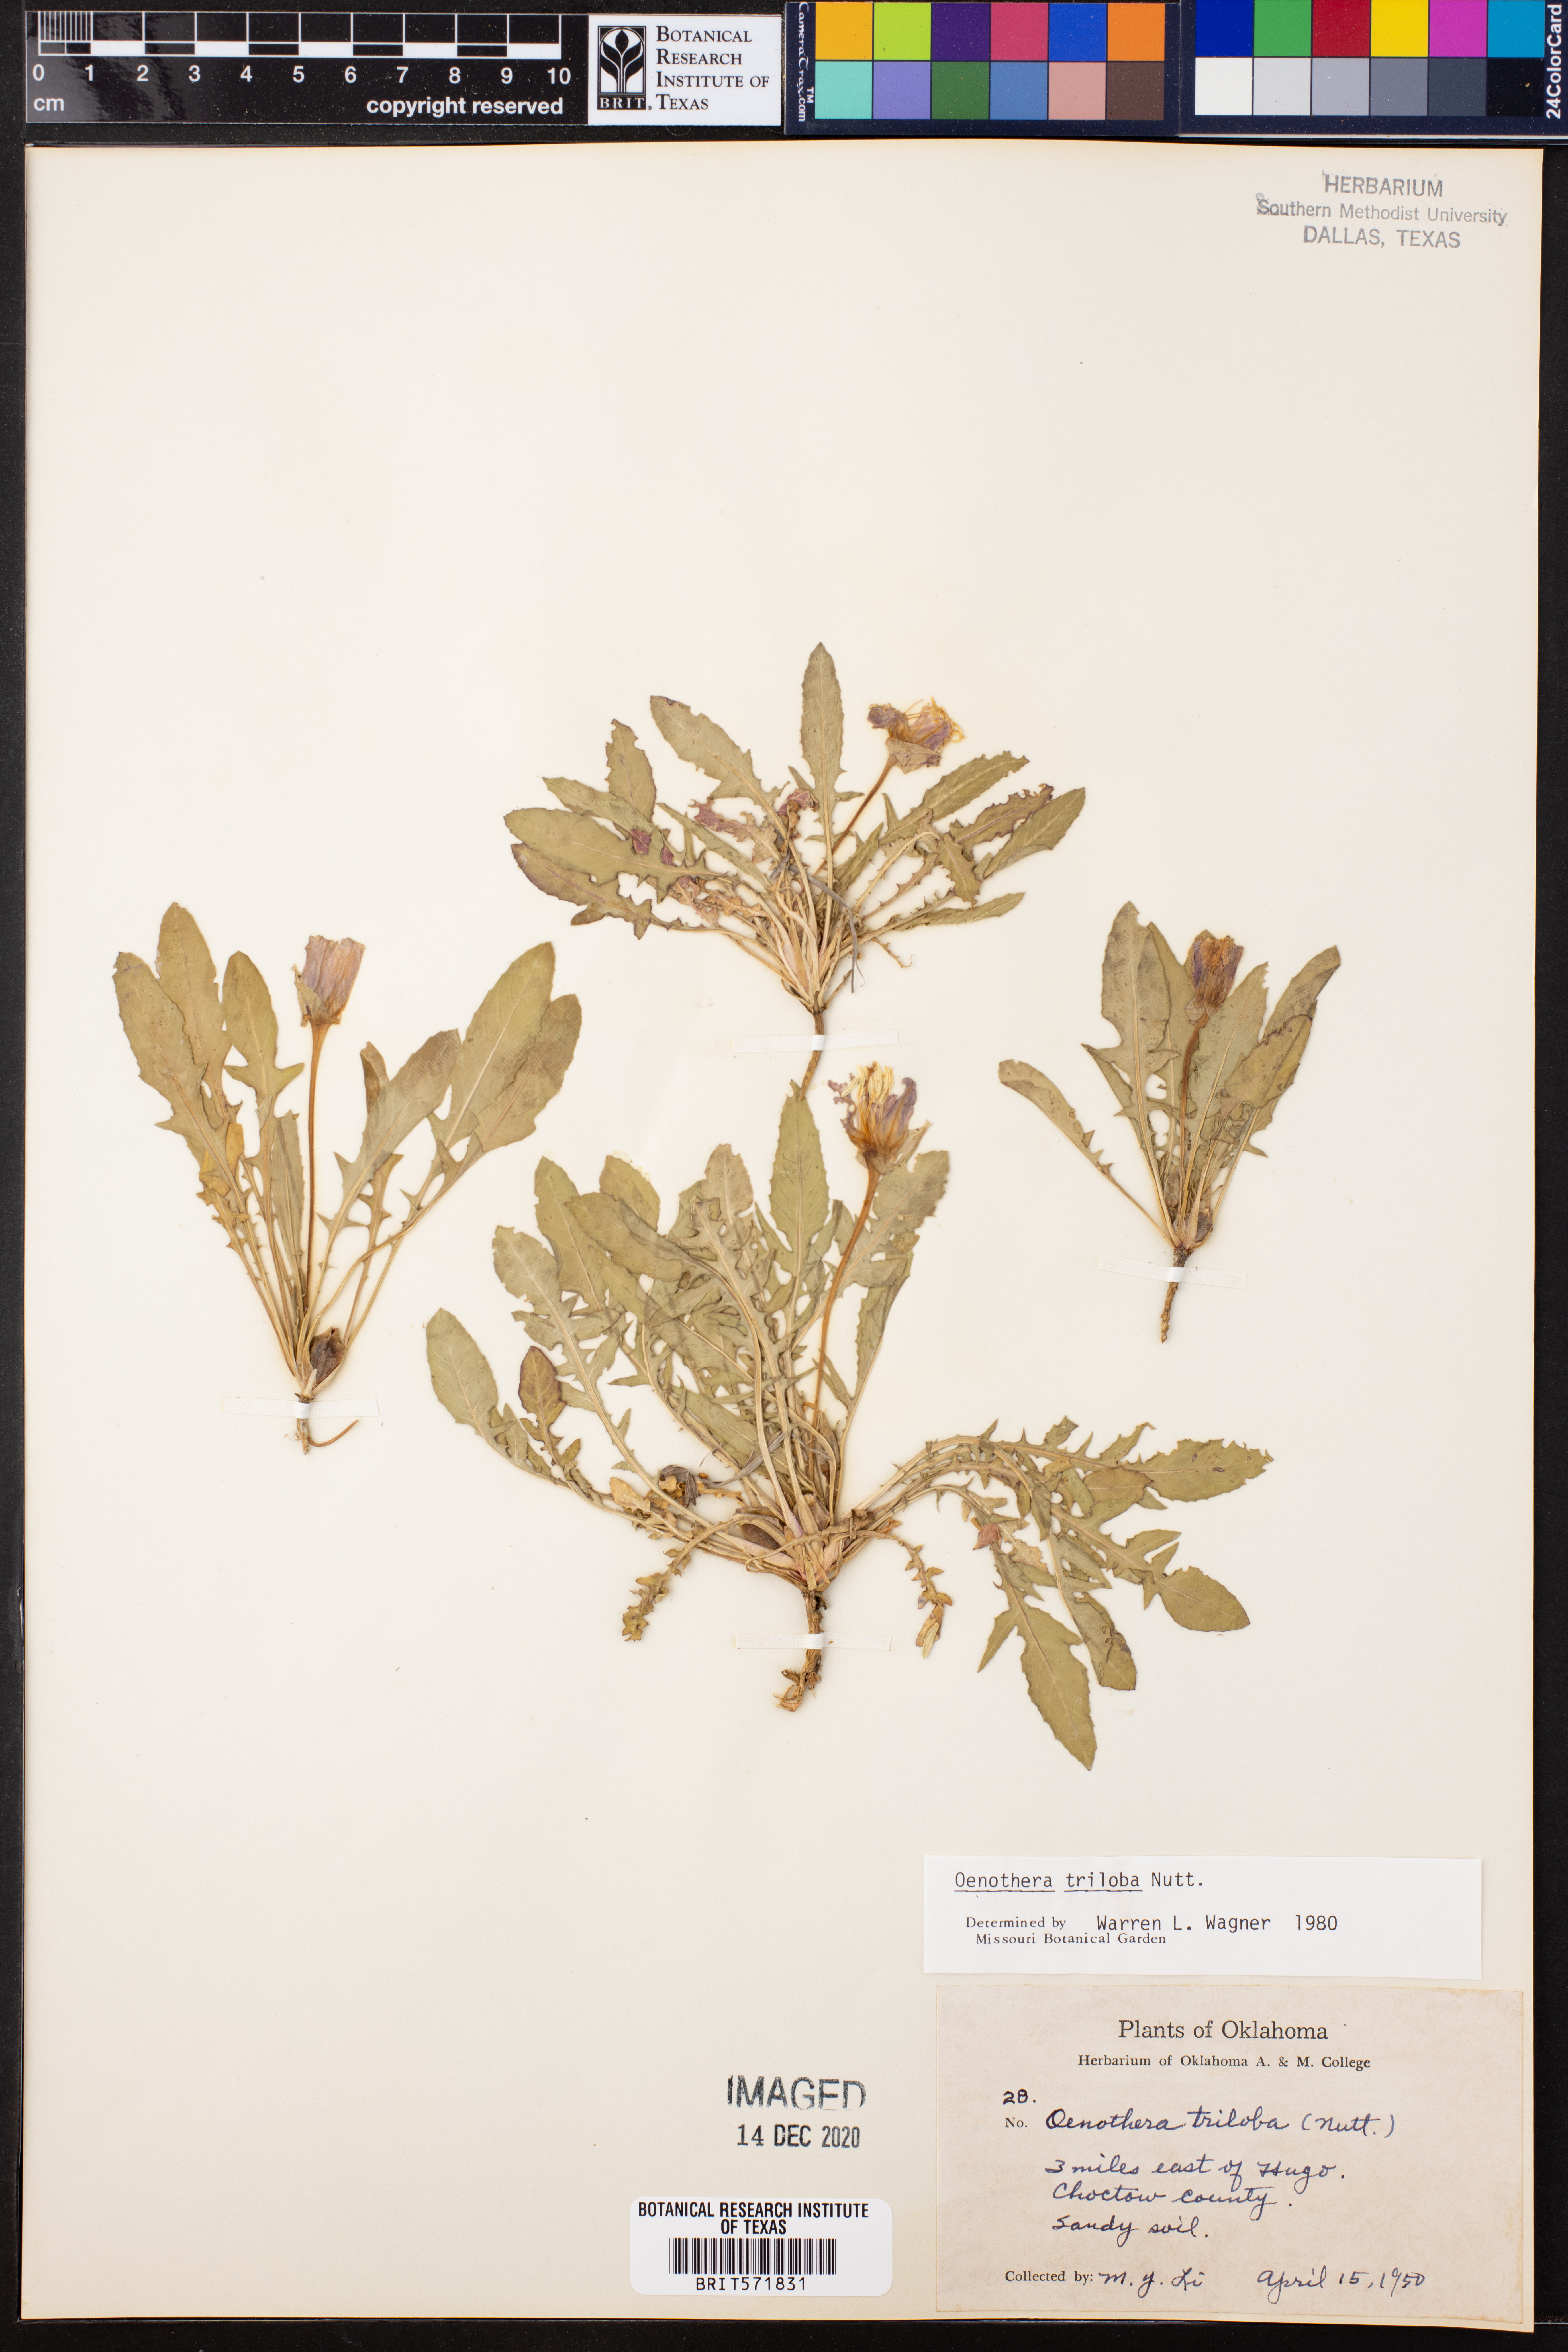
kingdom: Plantae
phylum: Tracheophyta
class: Magnoliopsida
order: Myrtales
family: Onagraceae
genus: Oenothera
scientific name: Oenothera triloba
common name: Sessile evening-primrose
